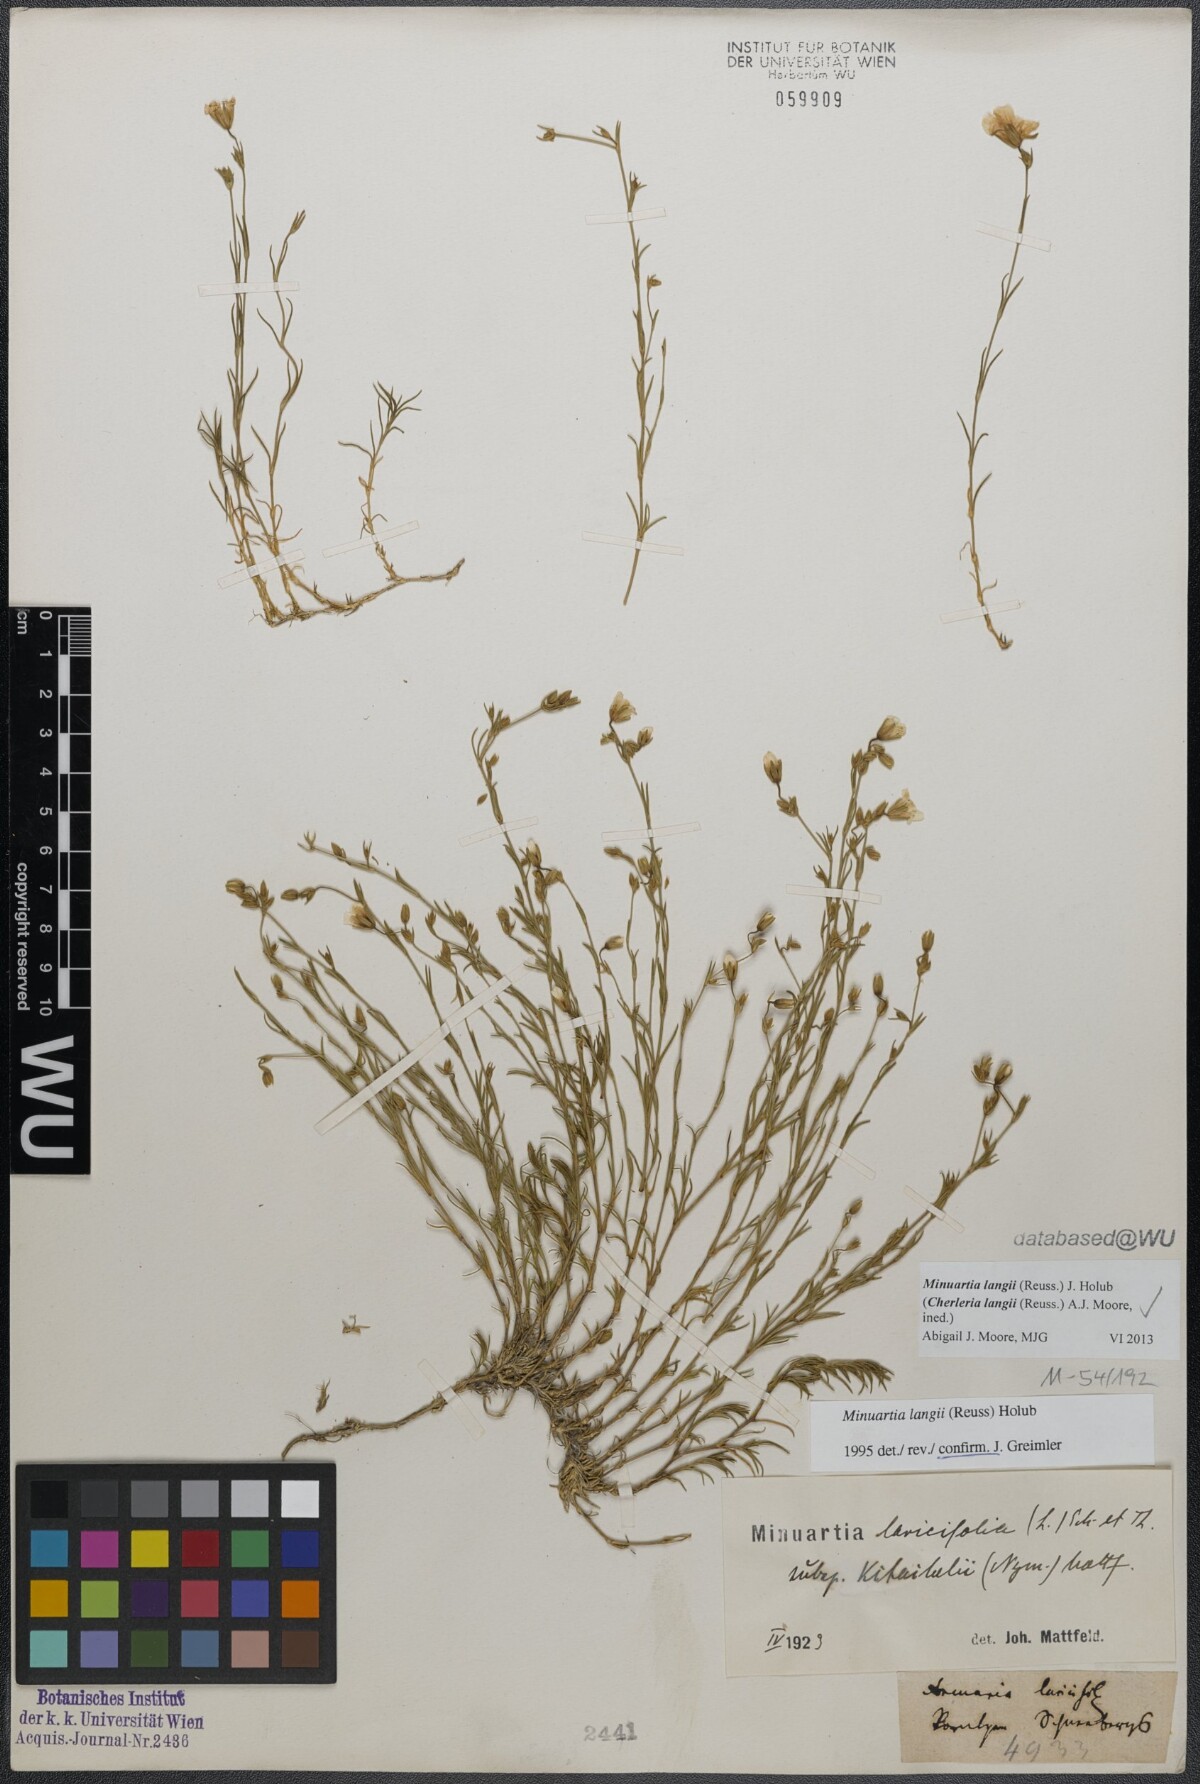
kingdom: Plantae
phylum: Tracheophyta
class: Magnoliopsida
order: Caryophyllales
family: Caryophyllaceae
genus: Cherleria
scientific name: Cherleria langii
